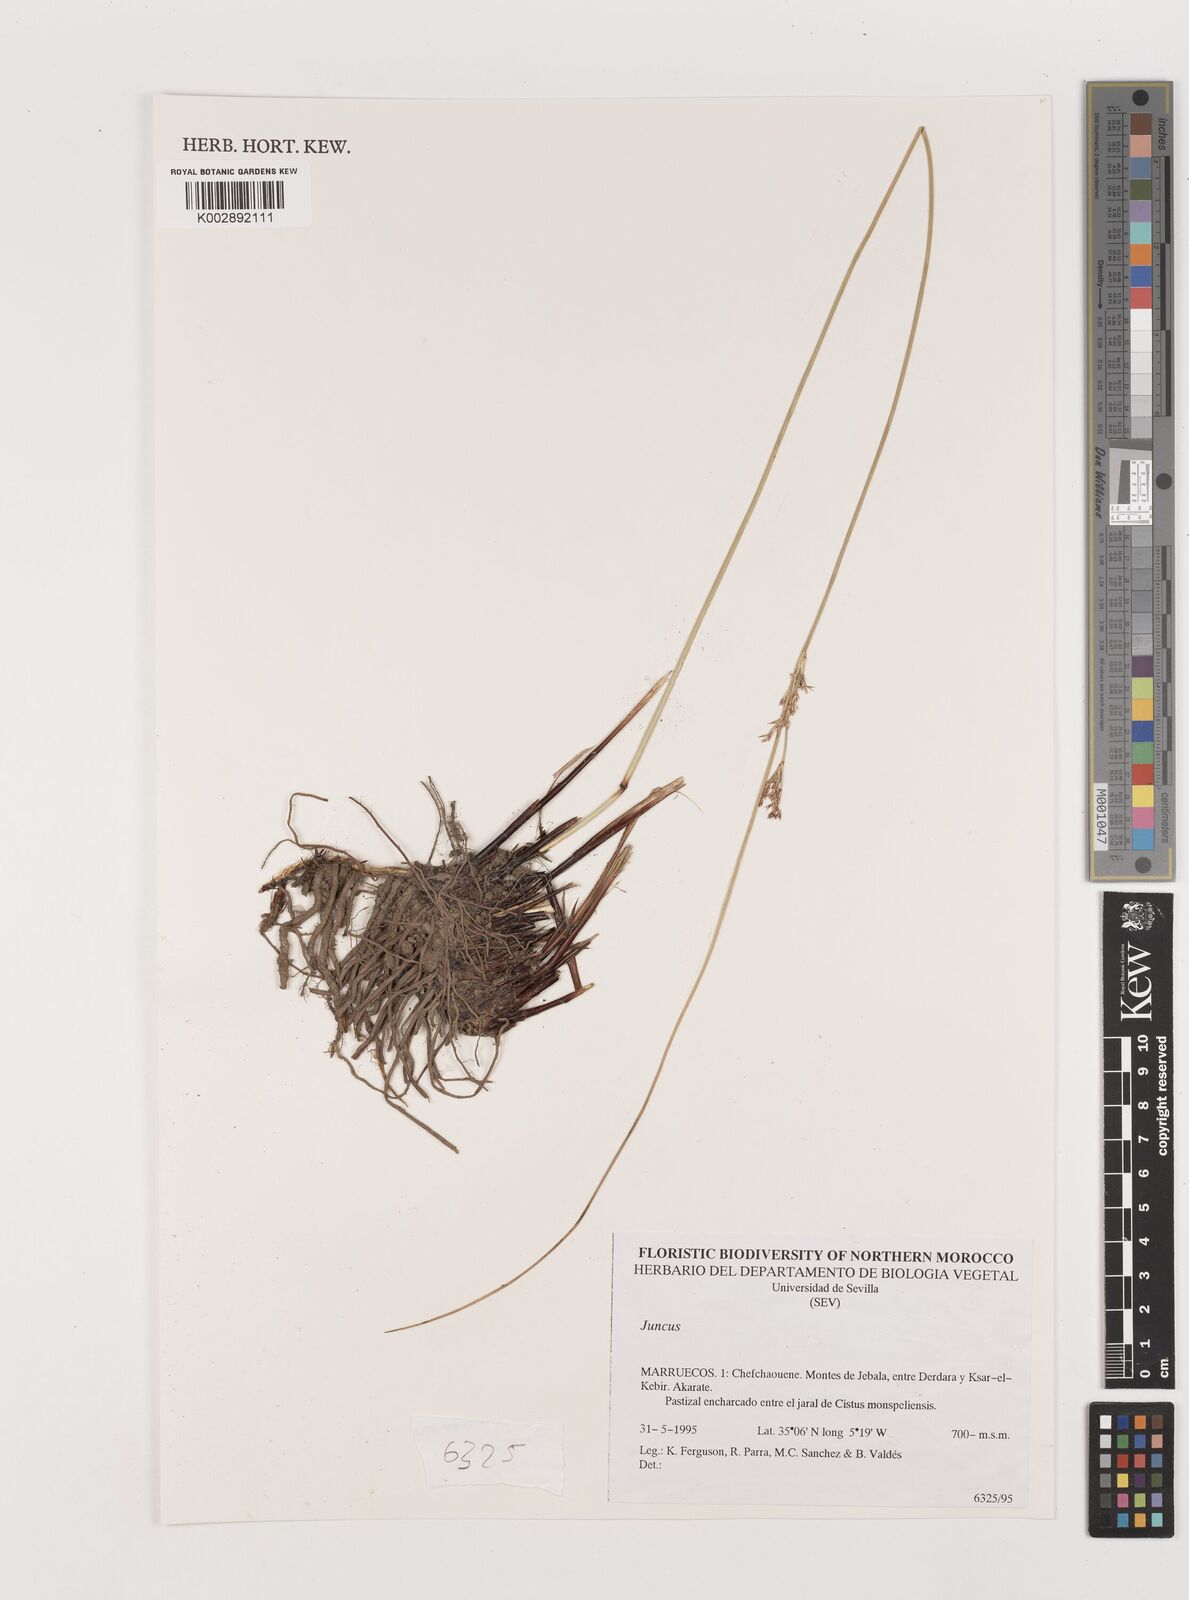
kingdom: Plantae
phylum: Tracheophyta
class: Liliopsida
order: Poales
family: Juncaceae
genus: Juncus
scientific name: Juncus
